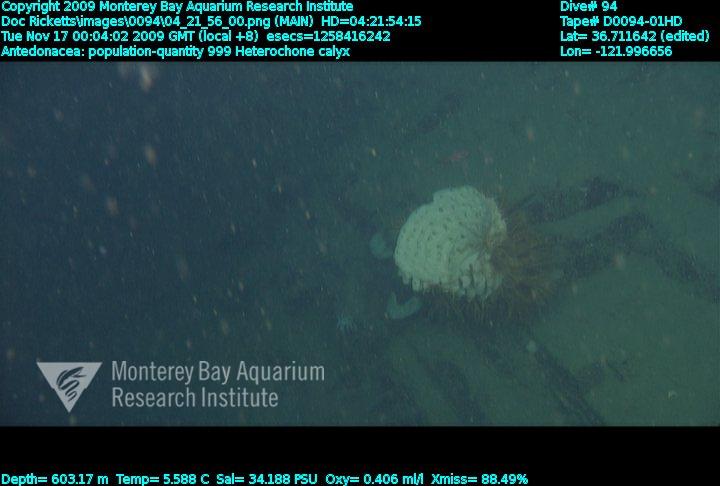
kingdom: Animalia
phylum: Porifera
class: Hexactinellida
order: Sceptrulophora
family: Aphrocallistidae
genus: Heterochone
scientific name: Heterochone calyx
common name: Fingered goblet glass sponge
